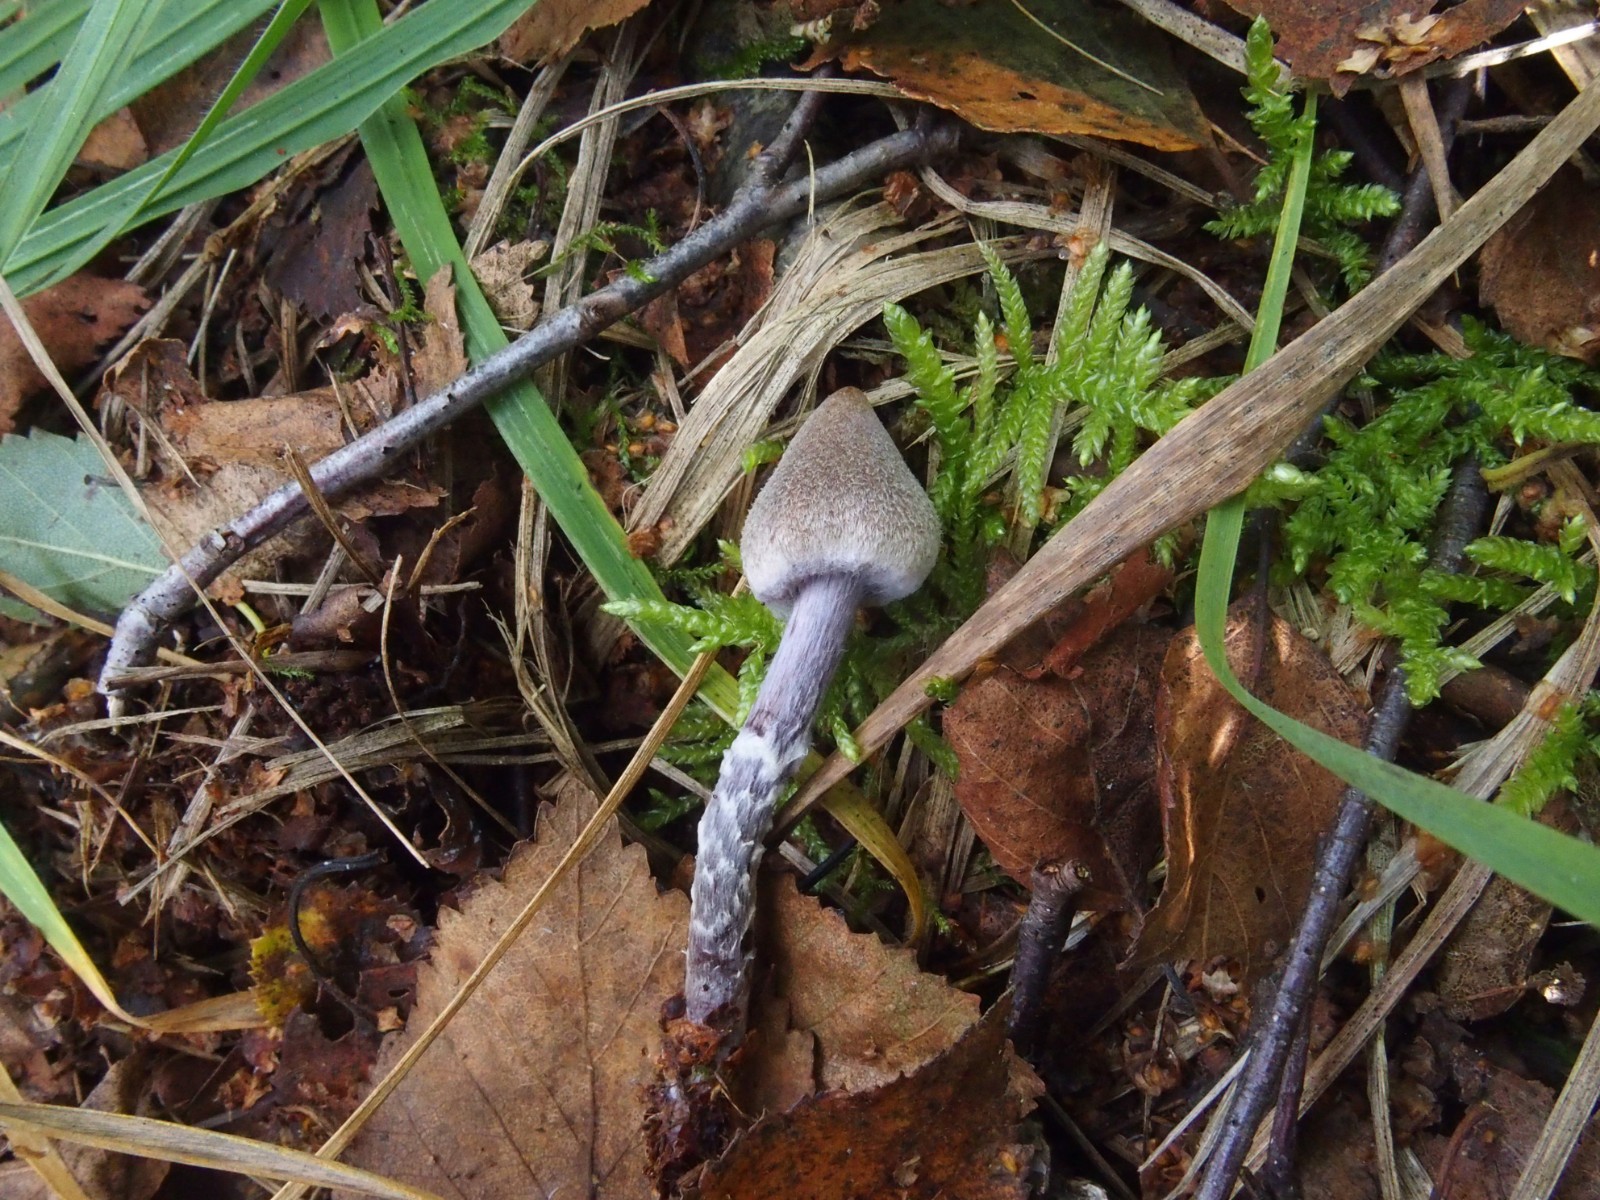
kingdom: Fungi
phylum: Basidiomycota
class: Agaricomycetes
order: Agaricales
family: Cortinariaceae
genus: Cortinarius
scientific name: Cortinarius
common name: pelargonie-slørhat
